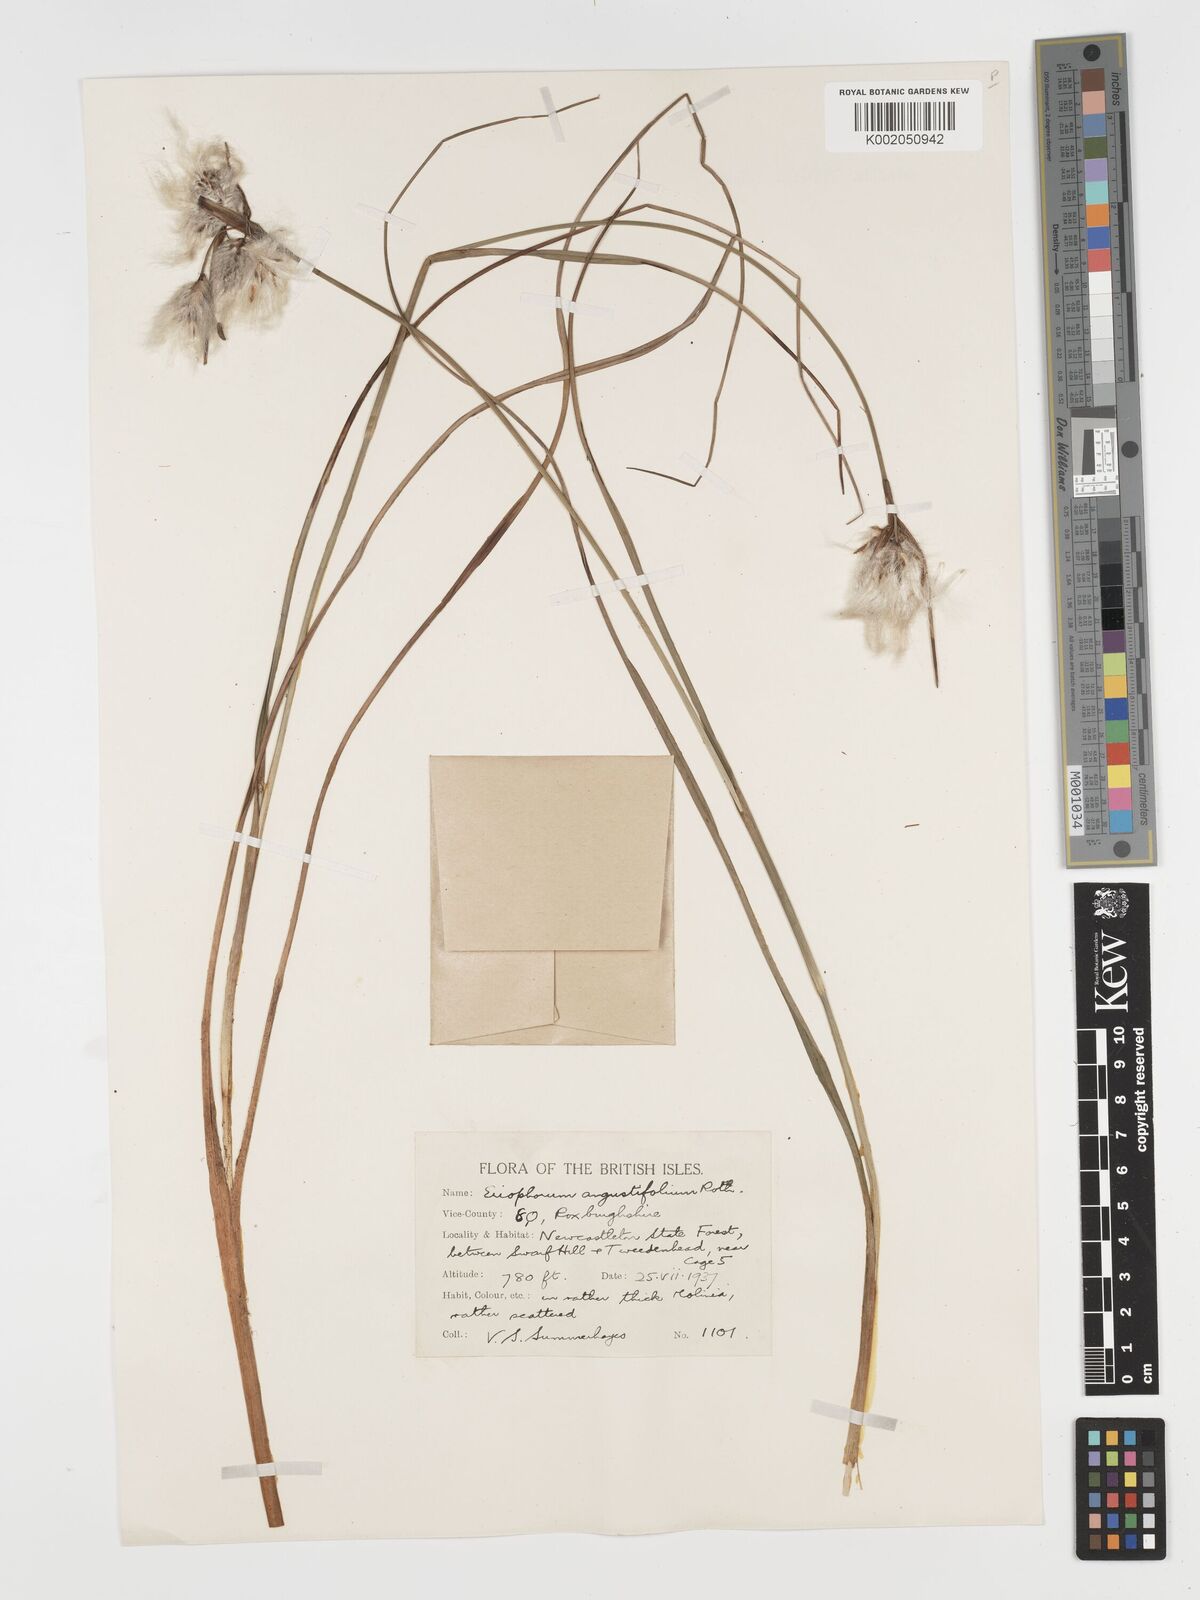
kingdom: Plantae
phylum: Tracheophyta
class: Liliopsida
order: Poales
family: Cyperaceae
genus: Eriophorum
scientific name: Eriophorum angustifolium
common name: Common cottongrass
